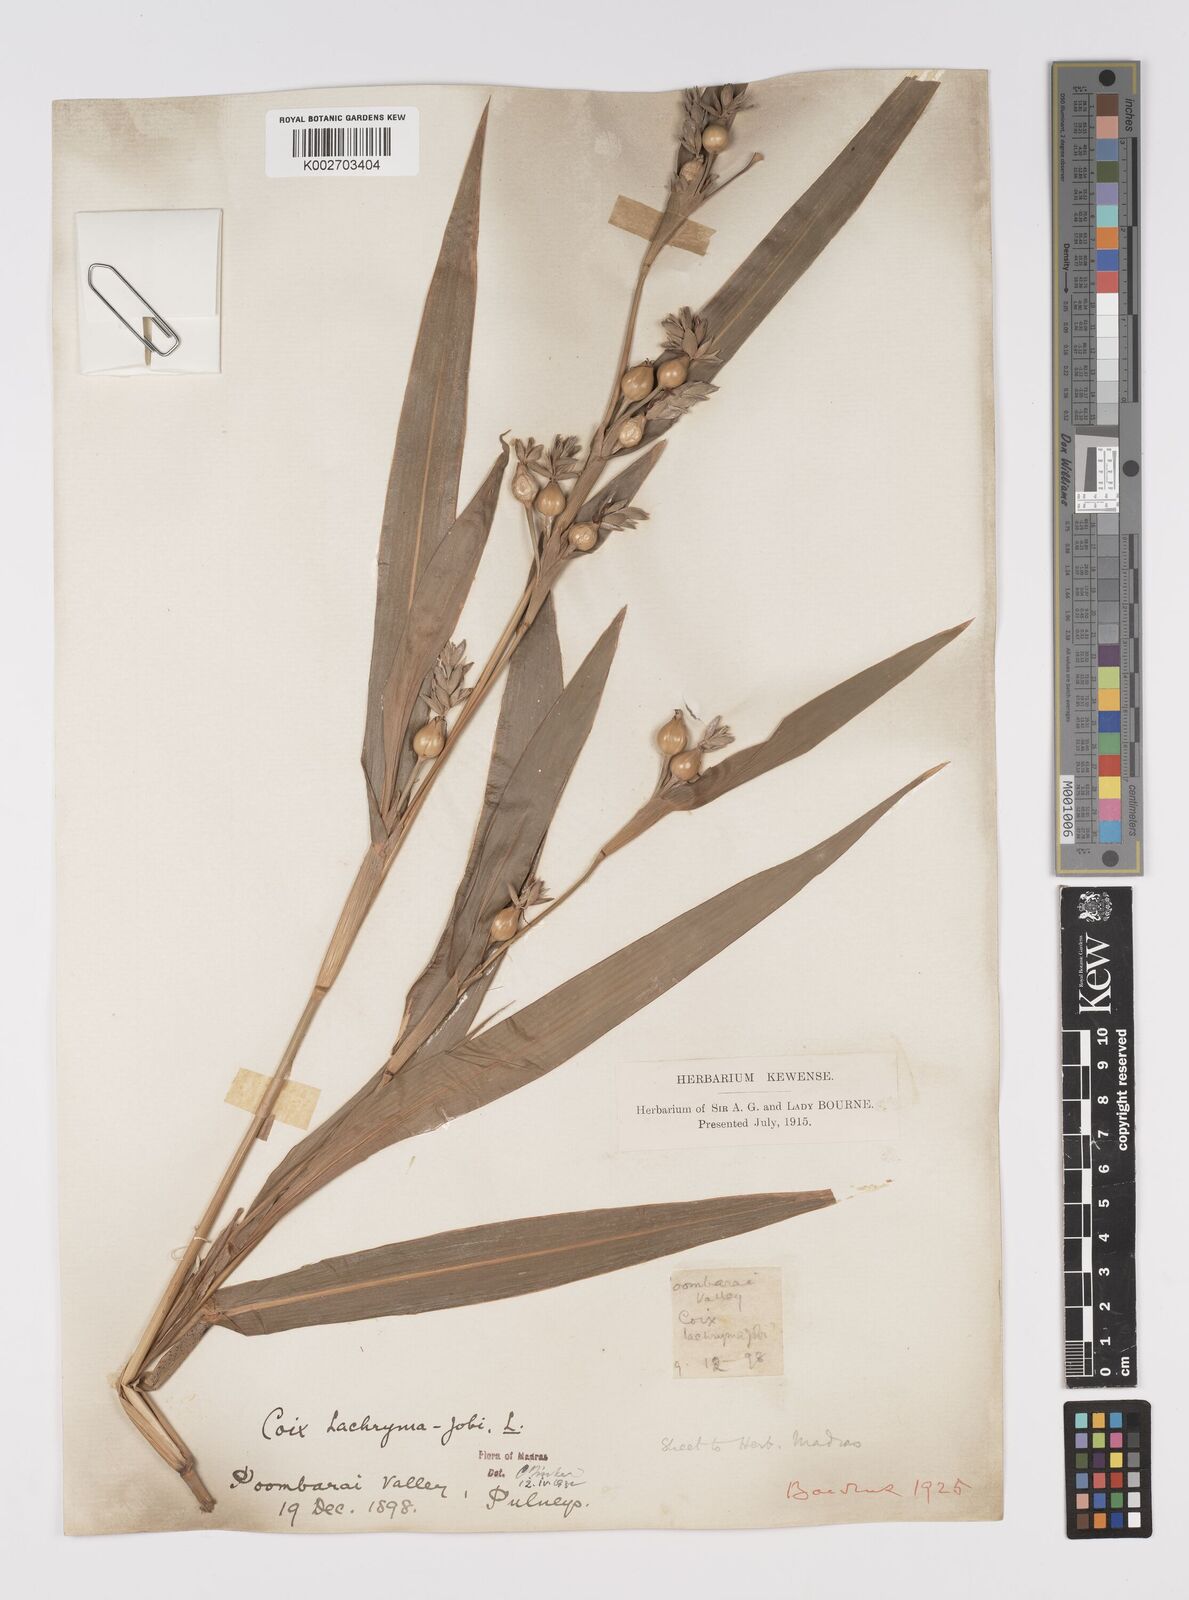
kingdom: Plantae
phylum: Tracheophyta
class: Liliopsida
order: Poales
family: Poaceae
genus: Coix
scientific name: Coix lacryma-jobi
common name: Job's tears
